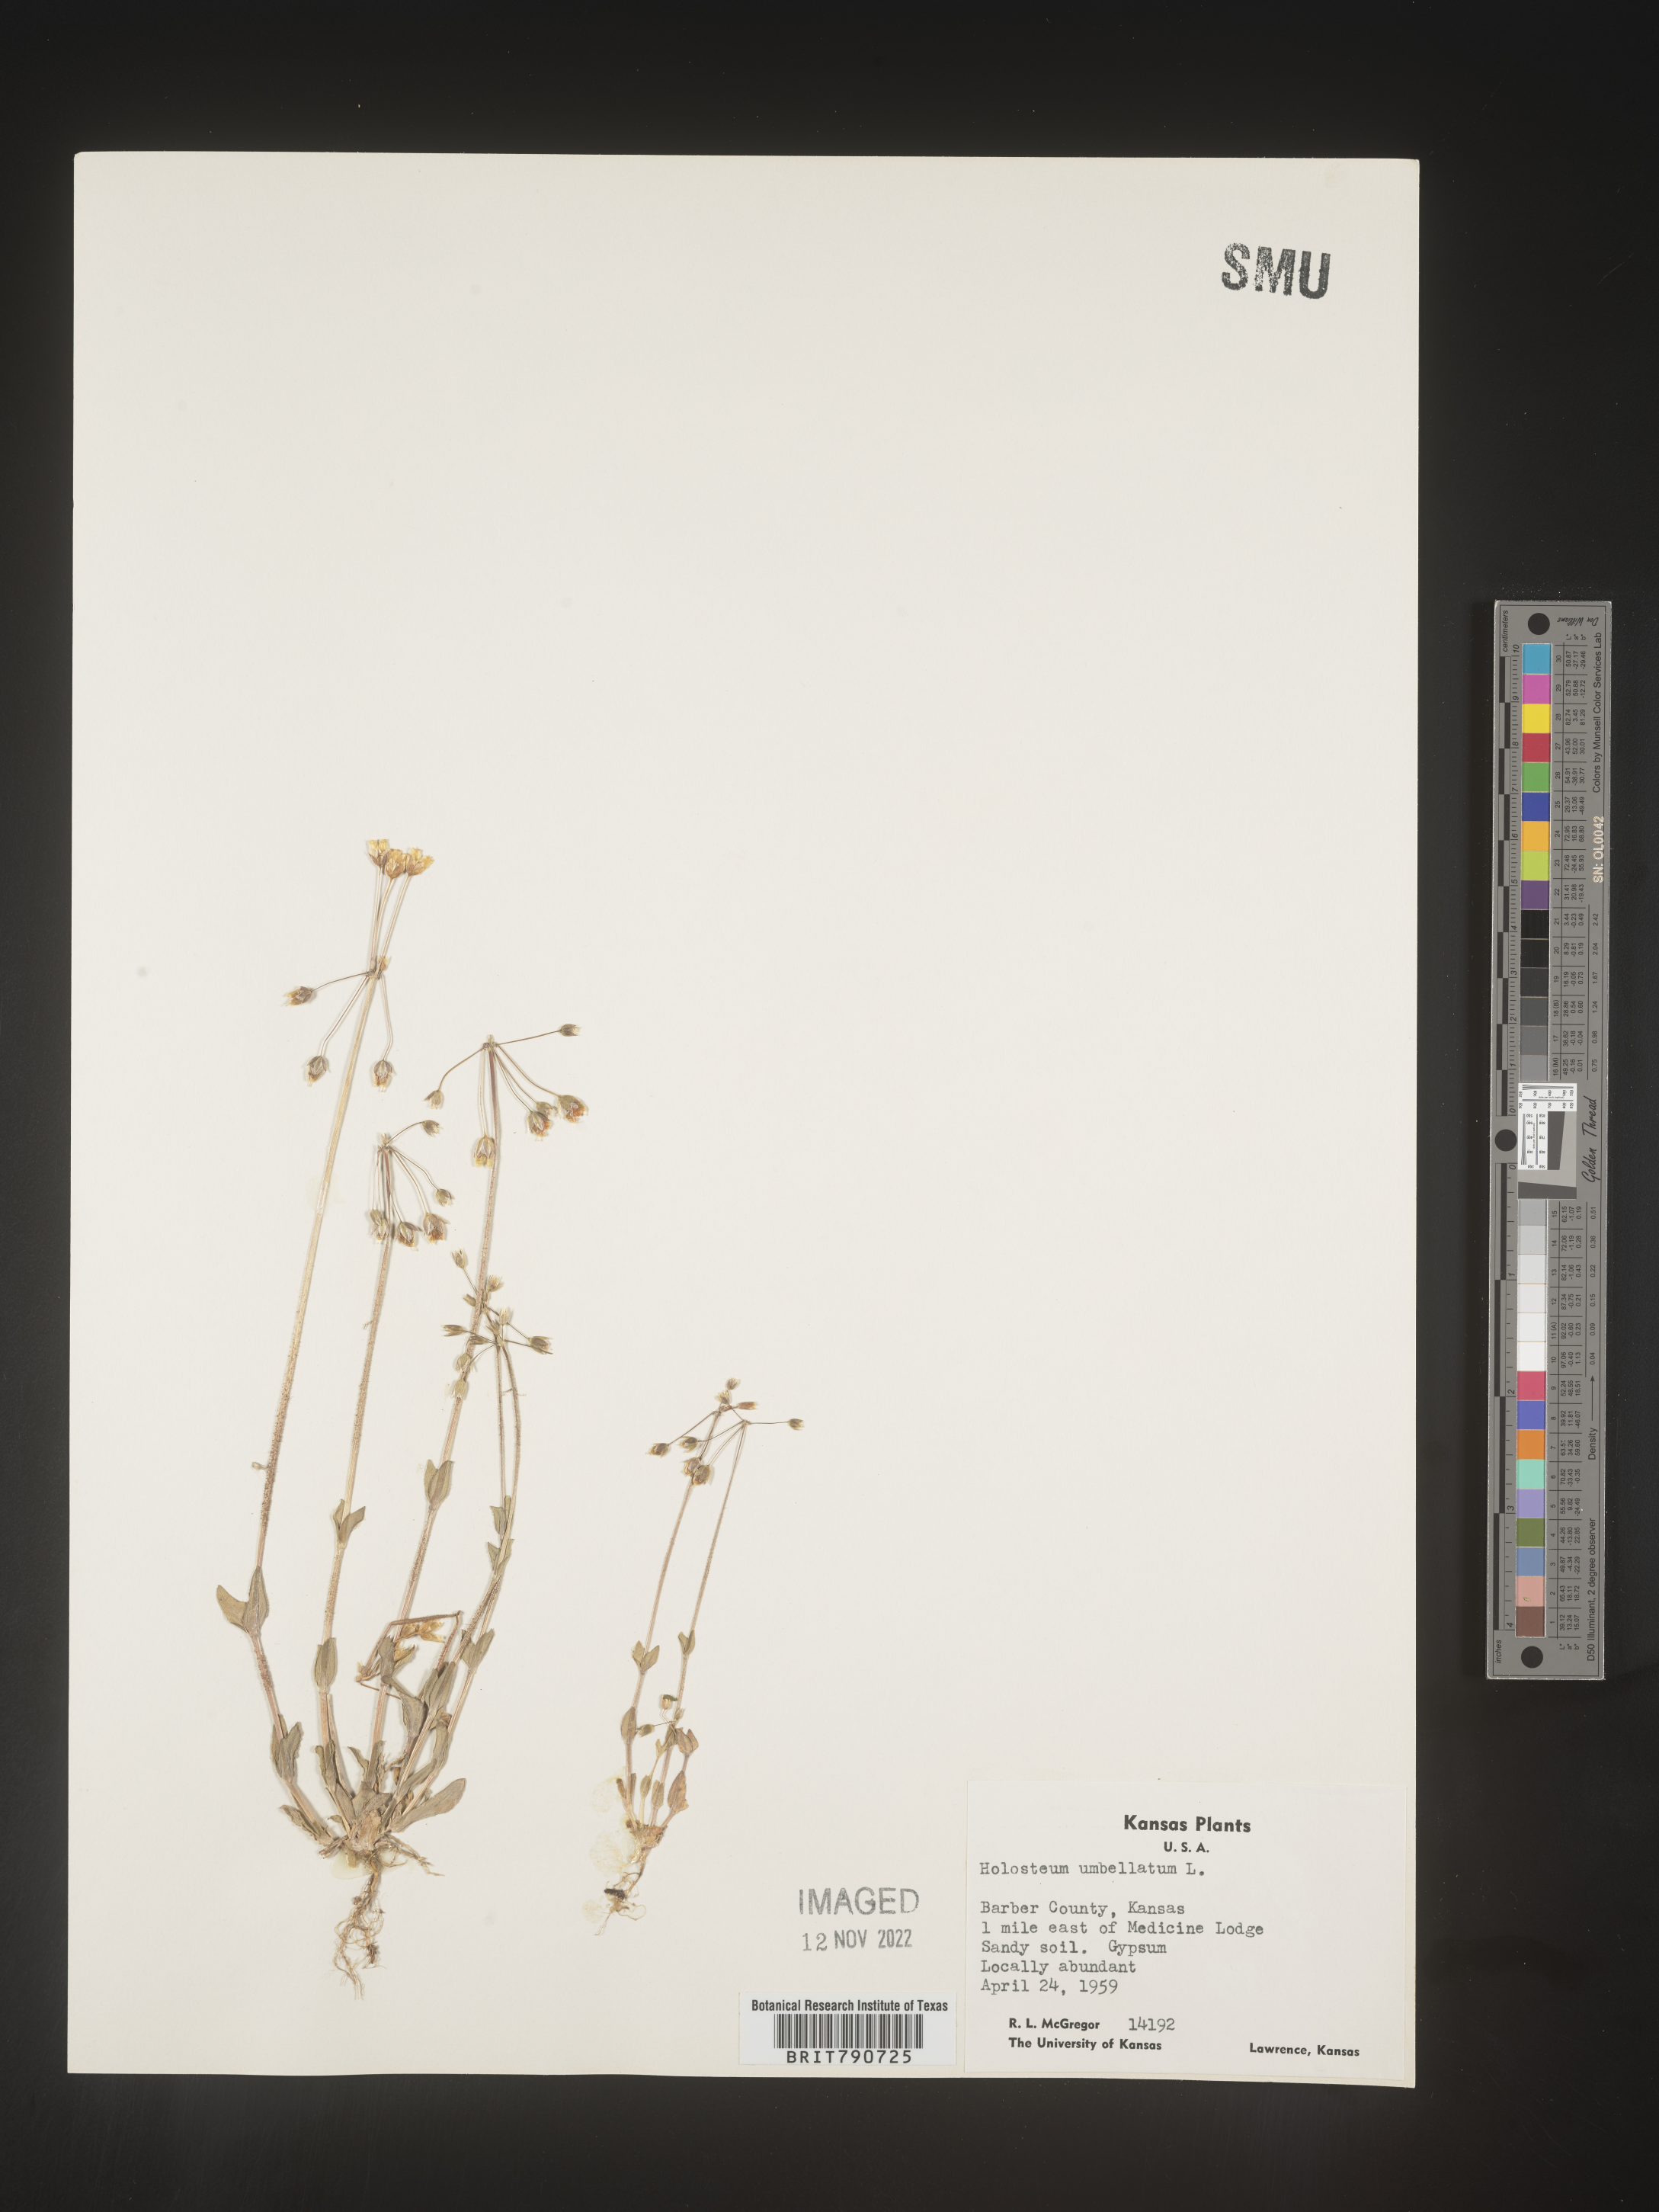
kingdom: Plantae
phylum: Tracheophyta
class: Magnoliopsida
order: Caryophyllales
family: Caryophyllaceae
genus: Holosteum
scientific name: Holosteum
